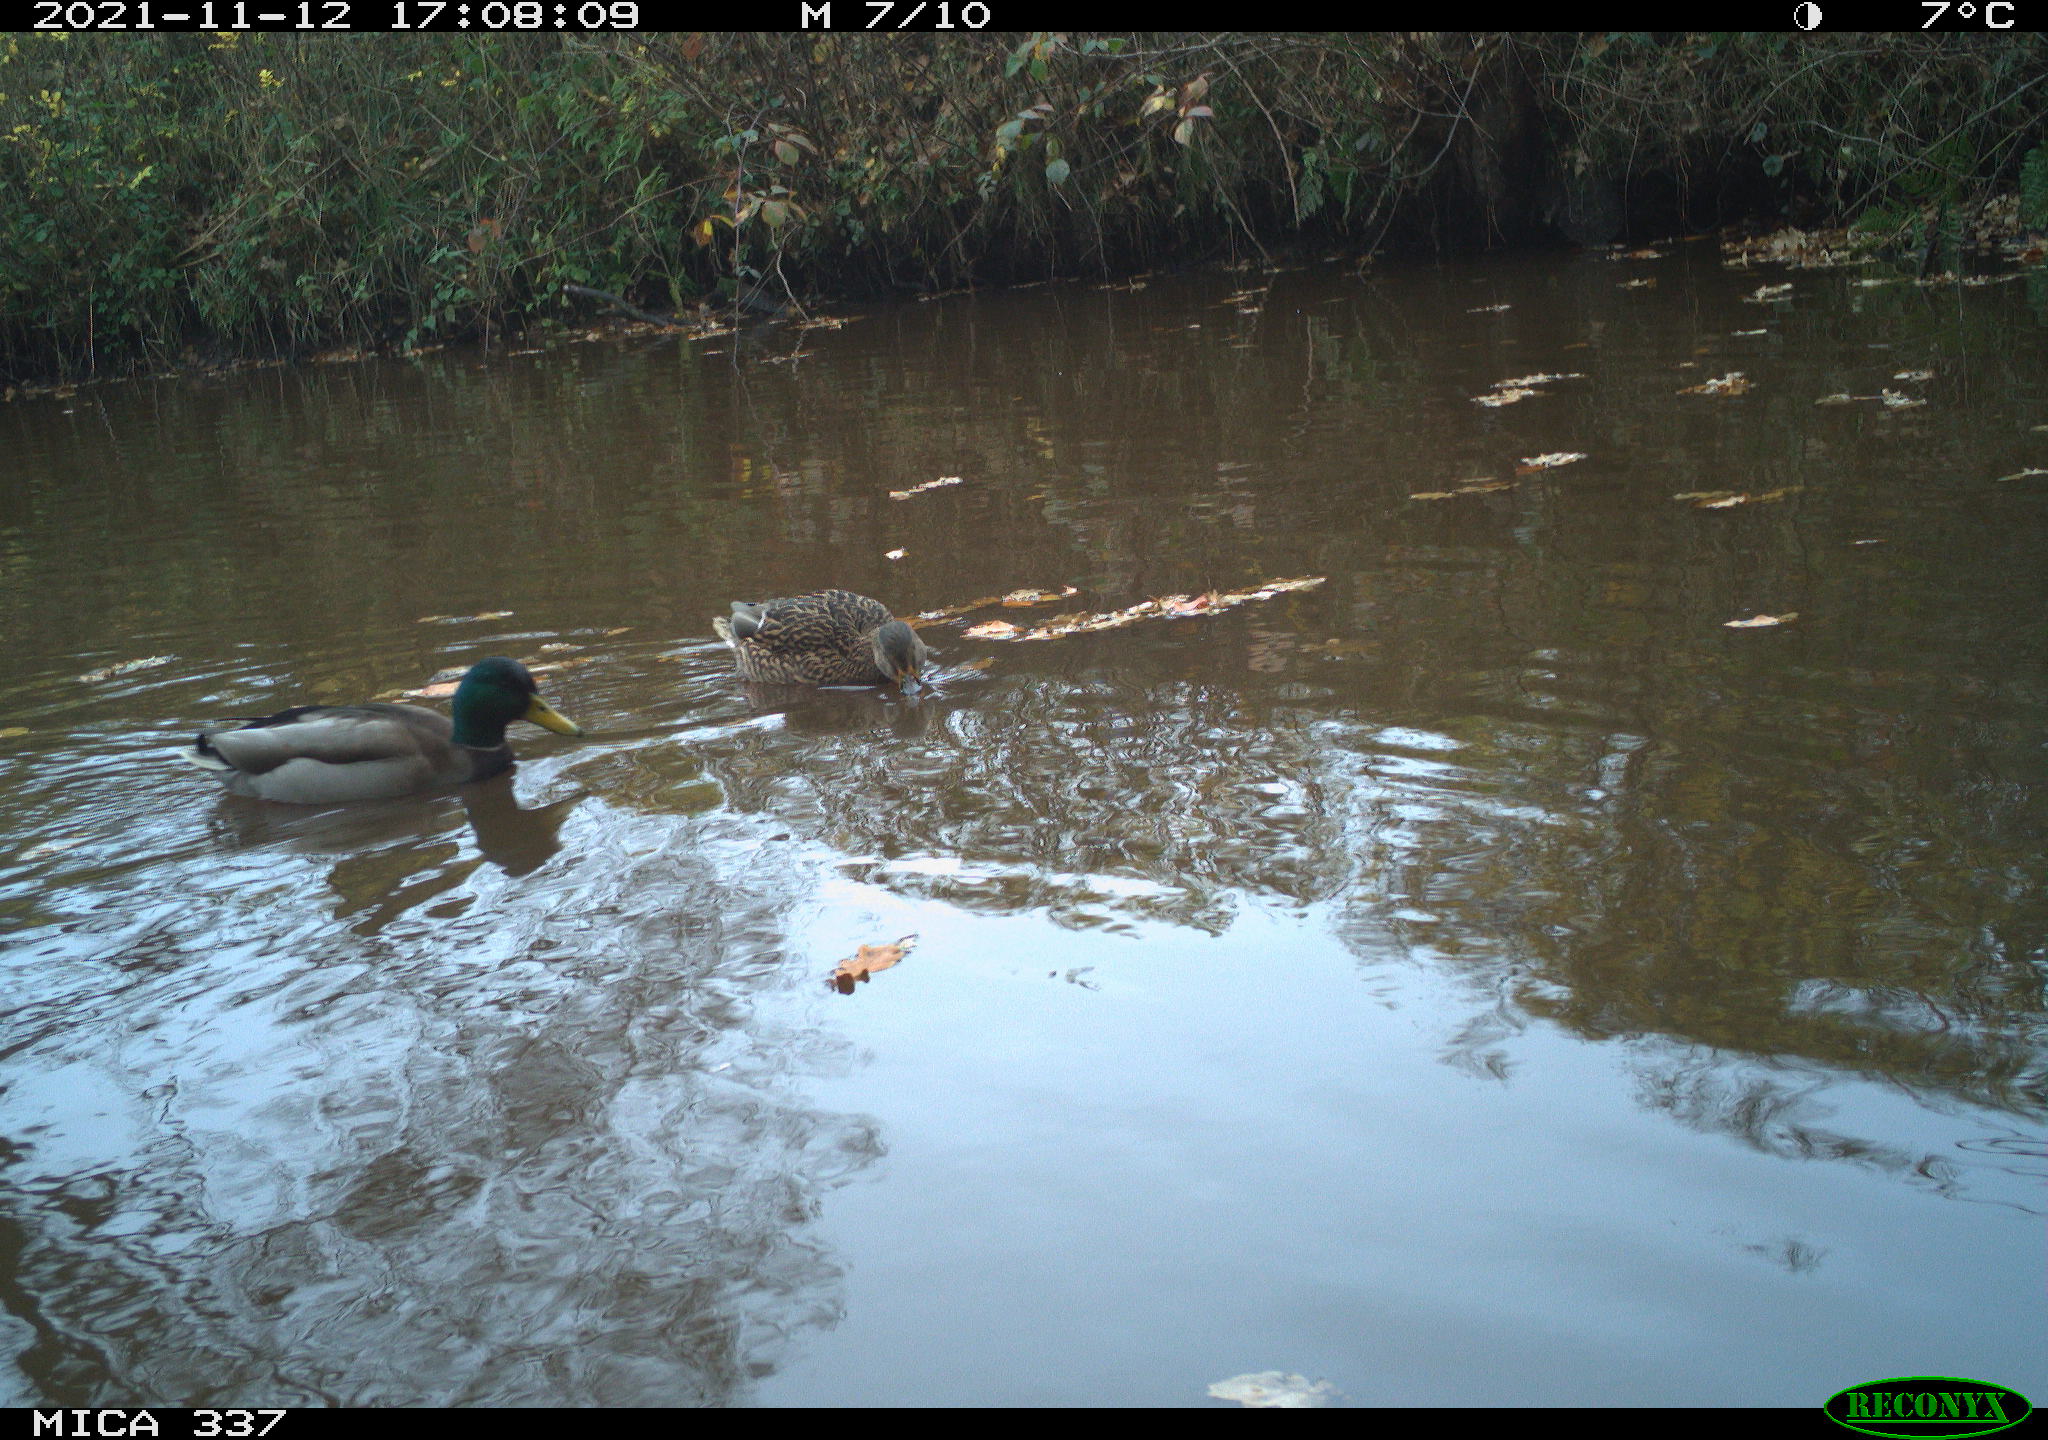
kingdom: Animalia
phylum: Chordata
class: Aves
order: Anseriformes
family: Anatidae
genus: Anas
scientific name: Anas platyrhynchos
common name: Mallard
